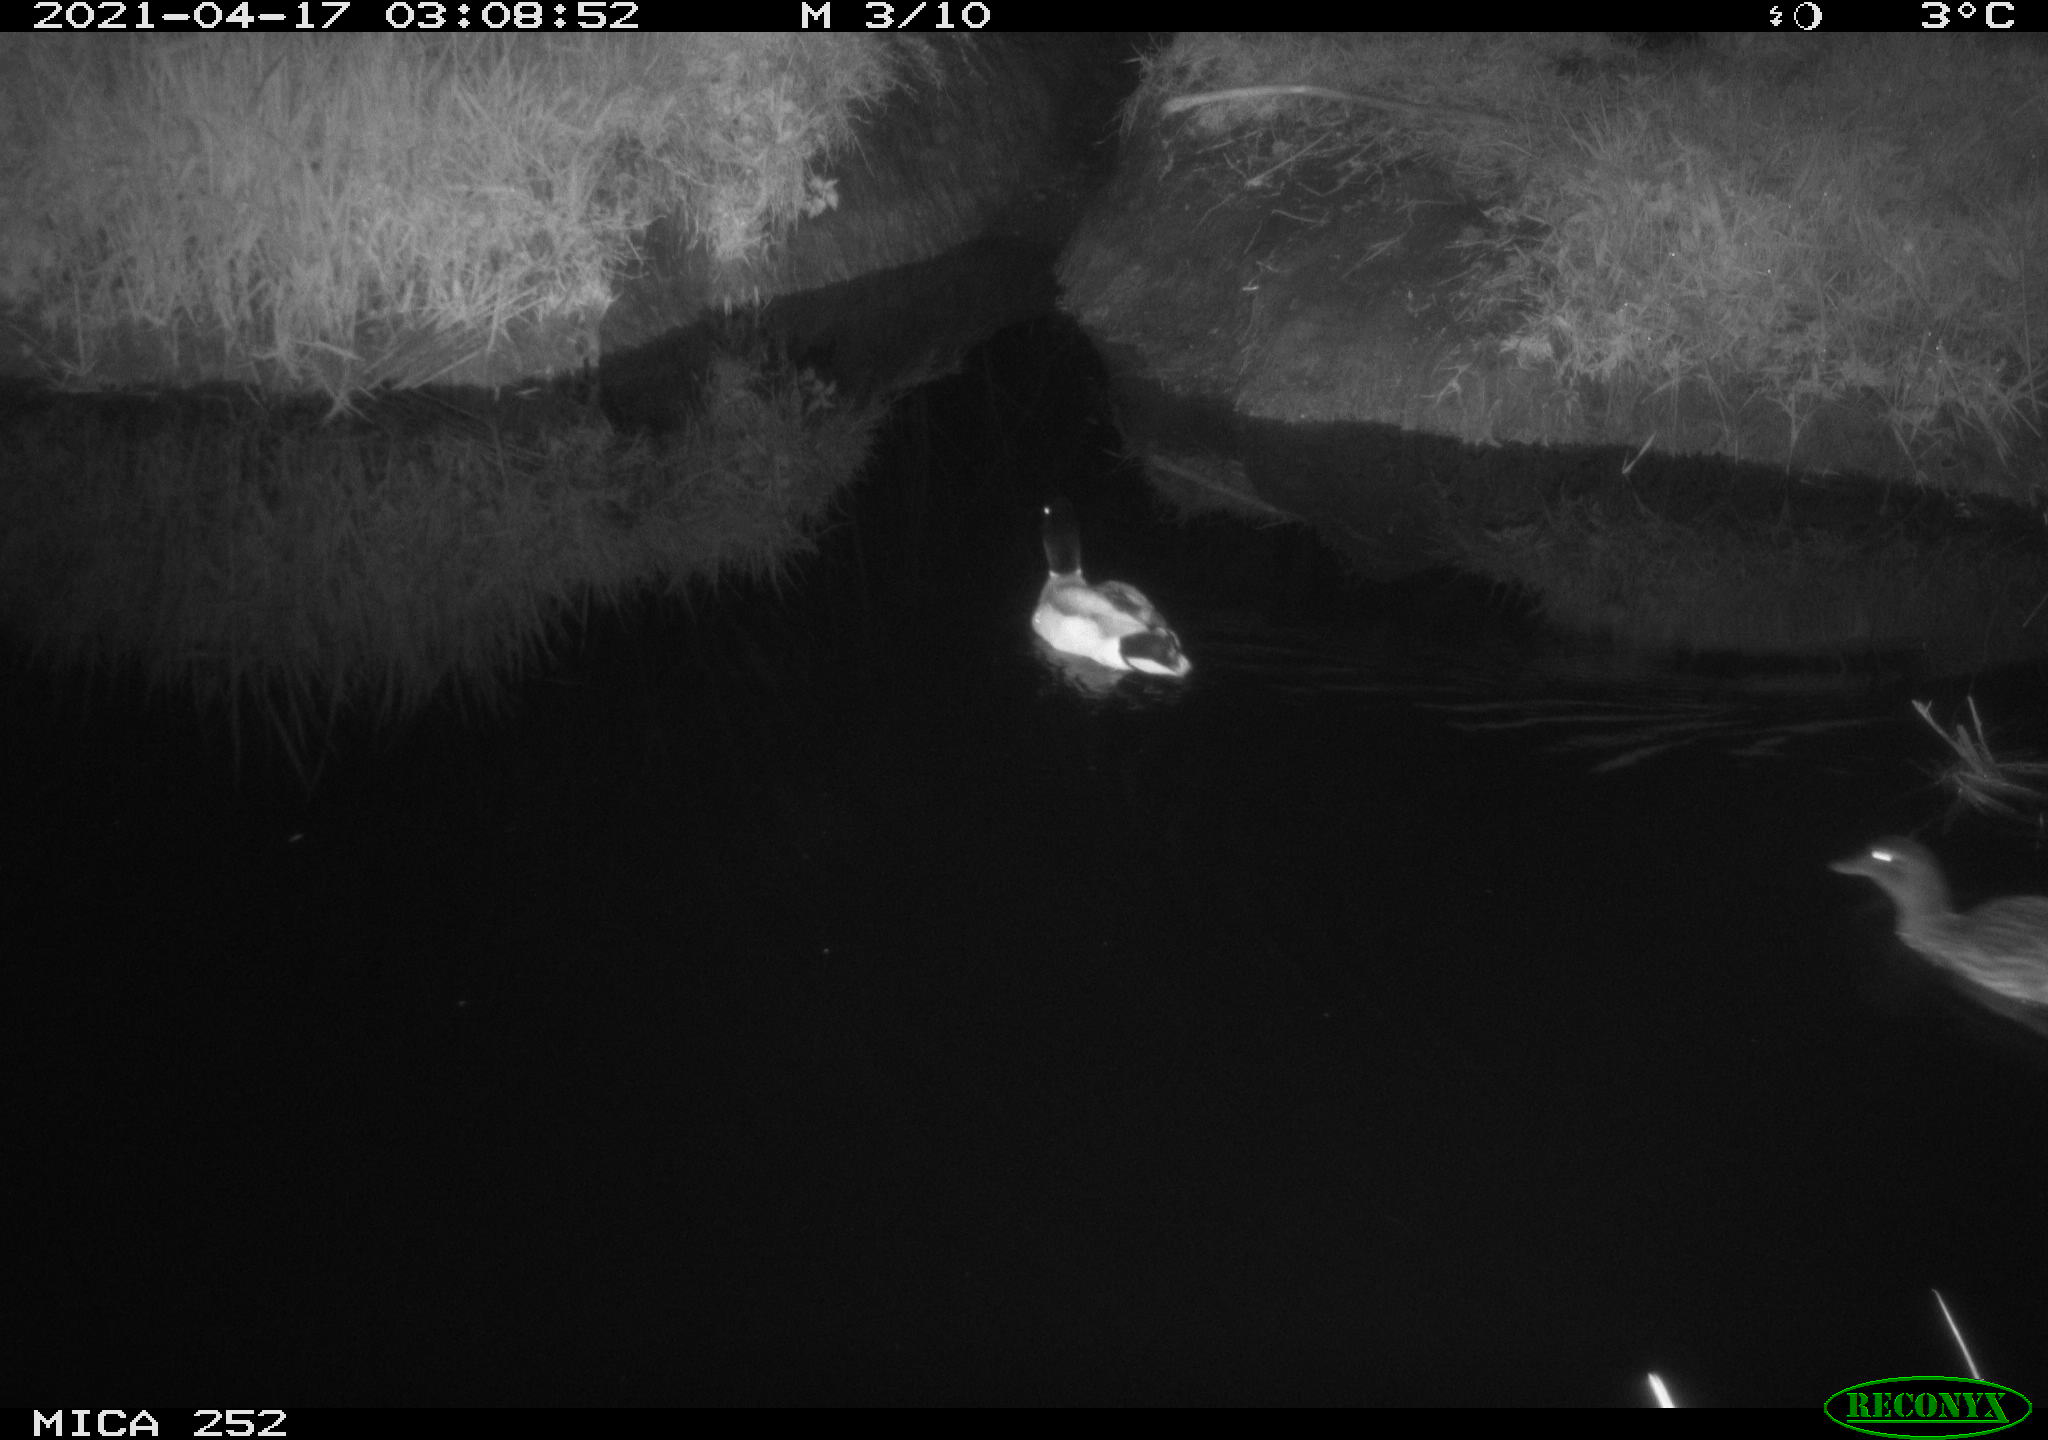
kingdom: Animalia
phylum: Chordata
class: Aves
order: Anseriformes
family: Anatidae
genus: Anas
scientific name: Anas platyrhynchos
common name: Mallard
